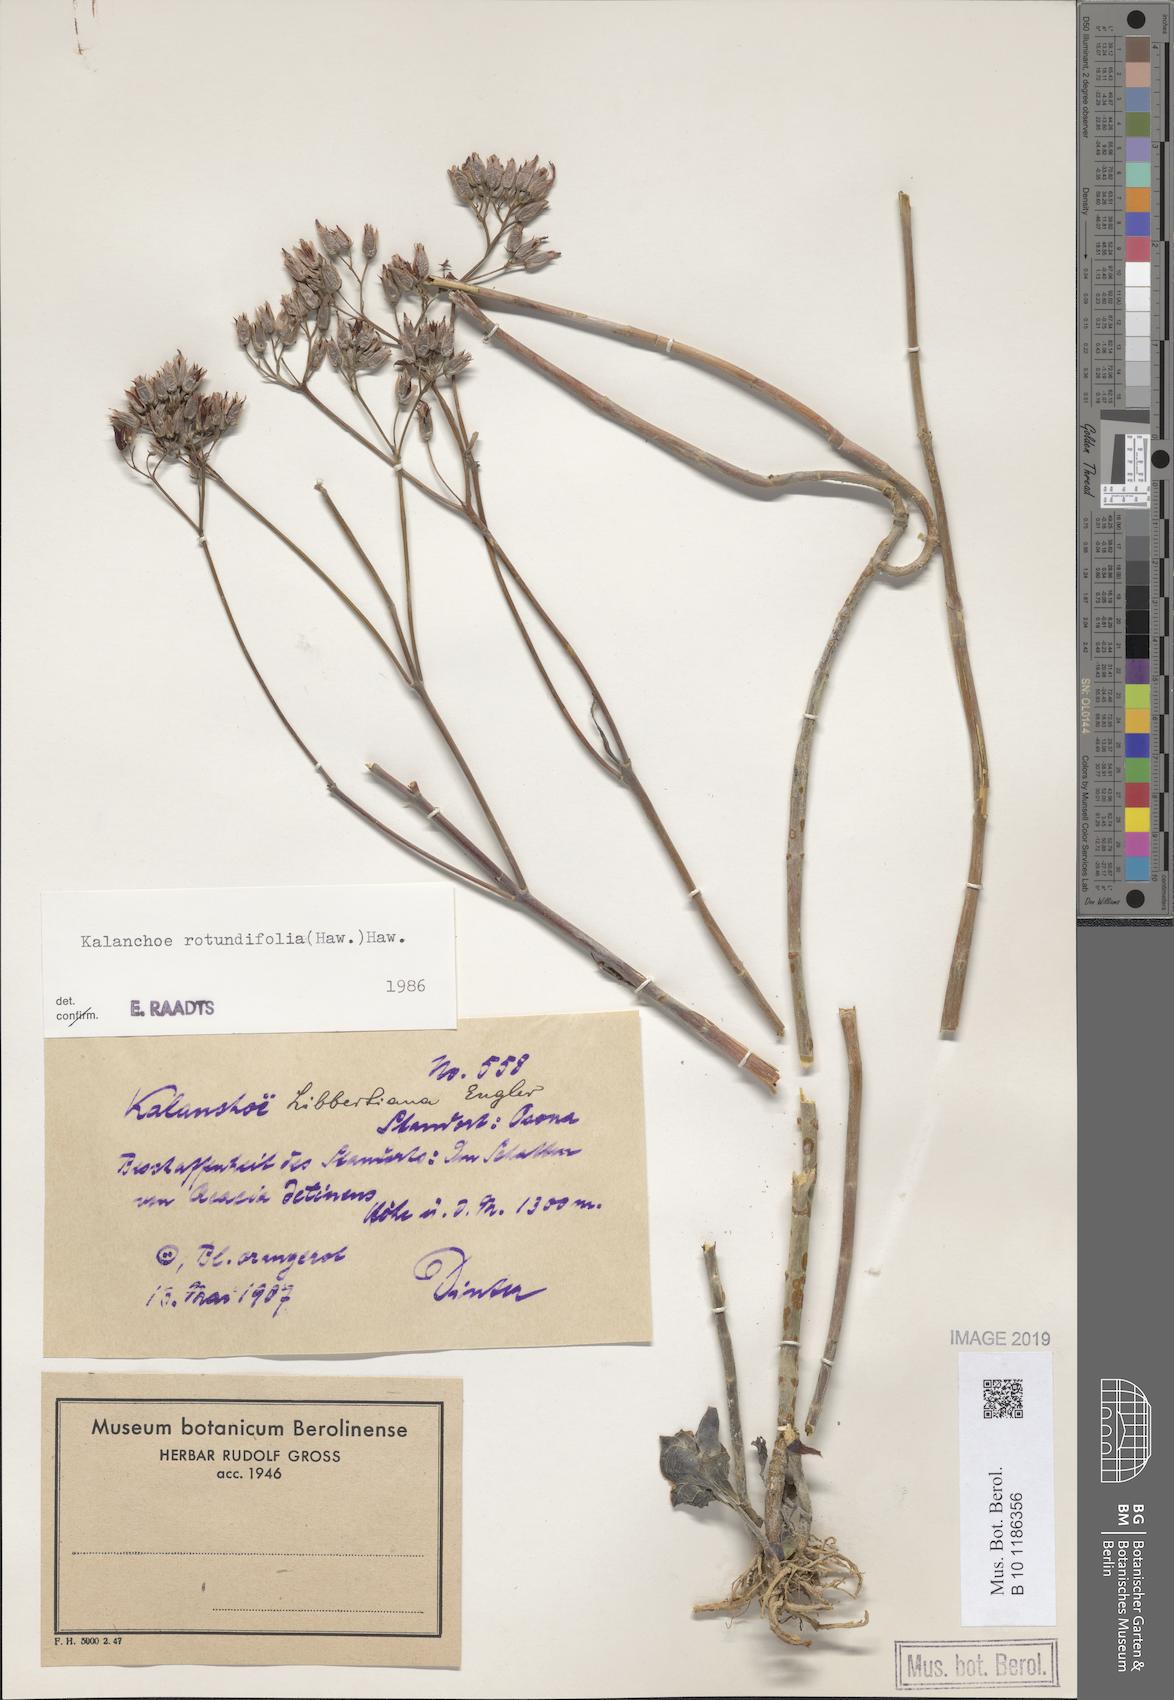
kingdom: Plantae
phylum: Tracheophyta
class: Magnoliopsida
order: Saxifragales
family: Crassulaceae
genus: Kalanchoe
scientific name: Kalanchoe rotundifolia
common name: Common kalanchoe
